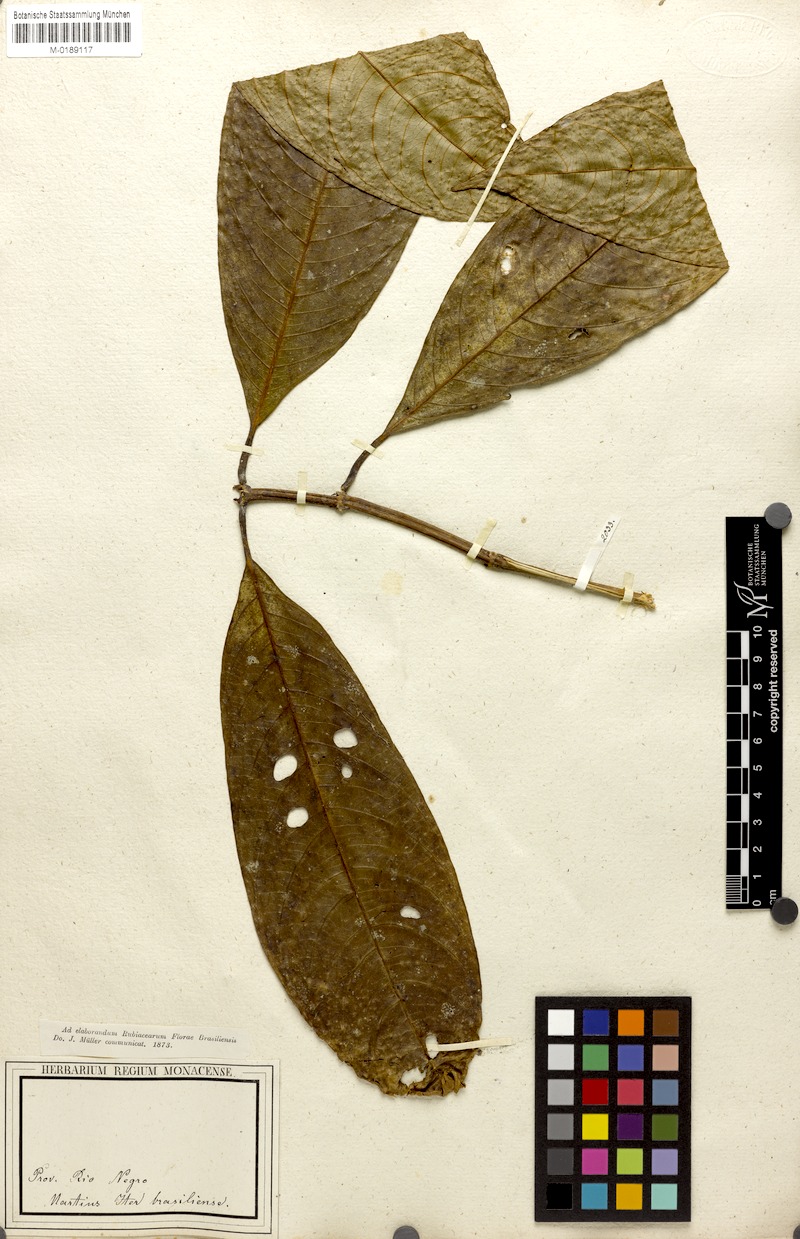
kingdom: Plantae
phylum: Tracheophyta
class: Magnoliopsida
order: Gentianales
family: Rubiaceae
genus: Palicourea
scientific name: Palicourea racemosa
